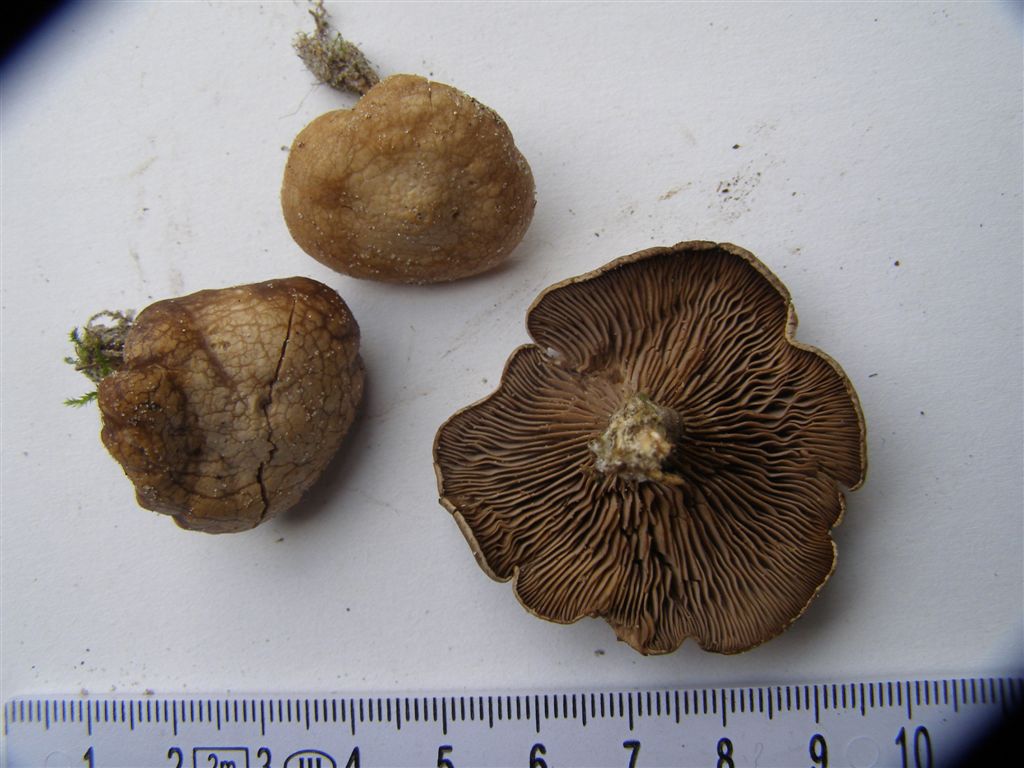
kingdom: Fungi
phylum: Basidiomycota
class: Agaricomycetes
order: Agaricales
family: Tricholomataceae
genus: Lulesia
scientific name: Lulesia
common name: sortnende troldhat
